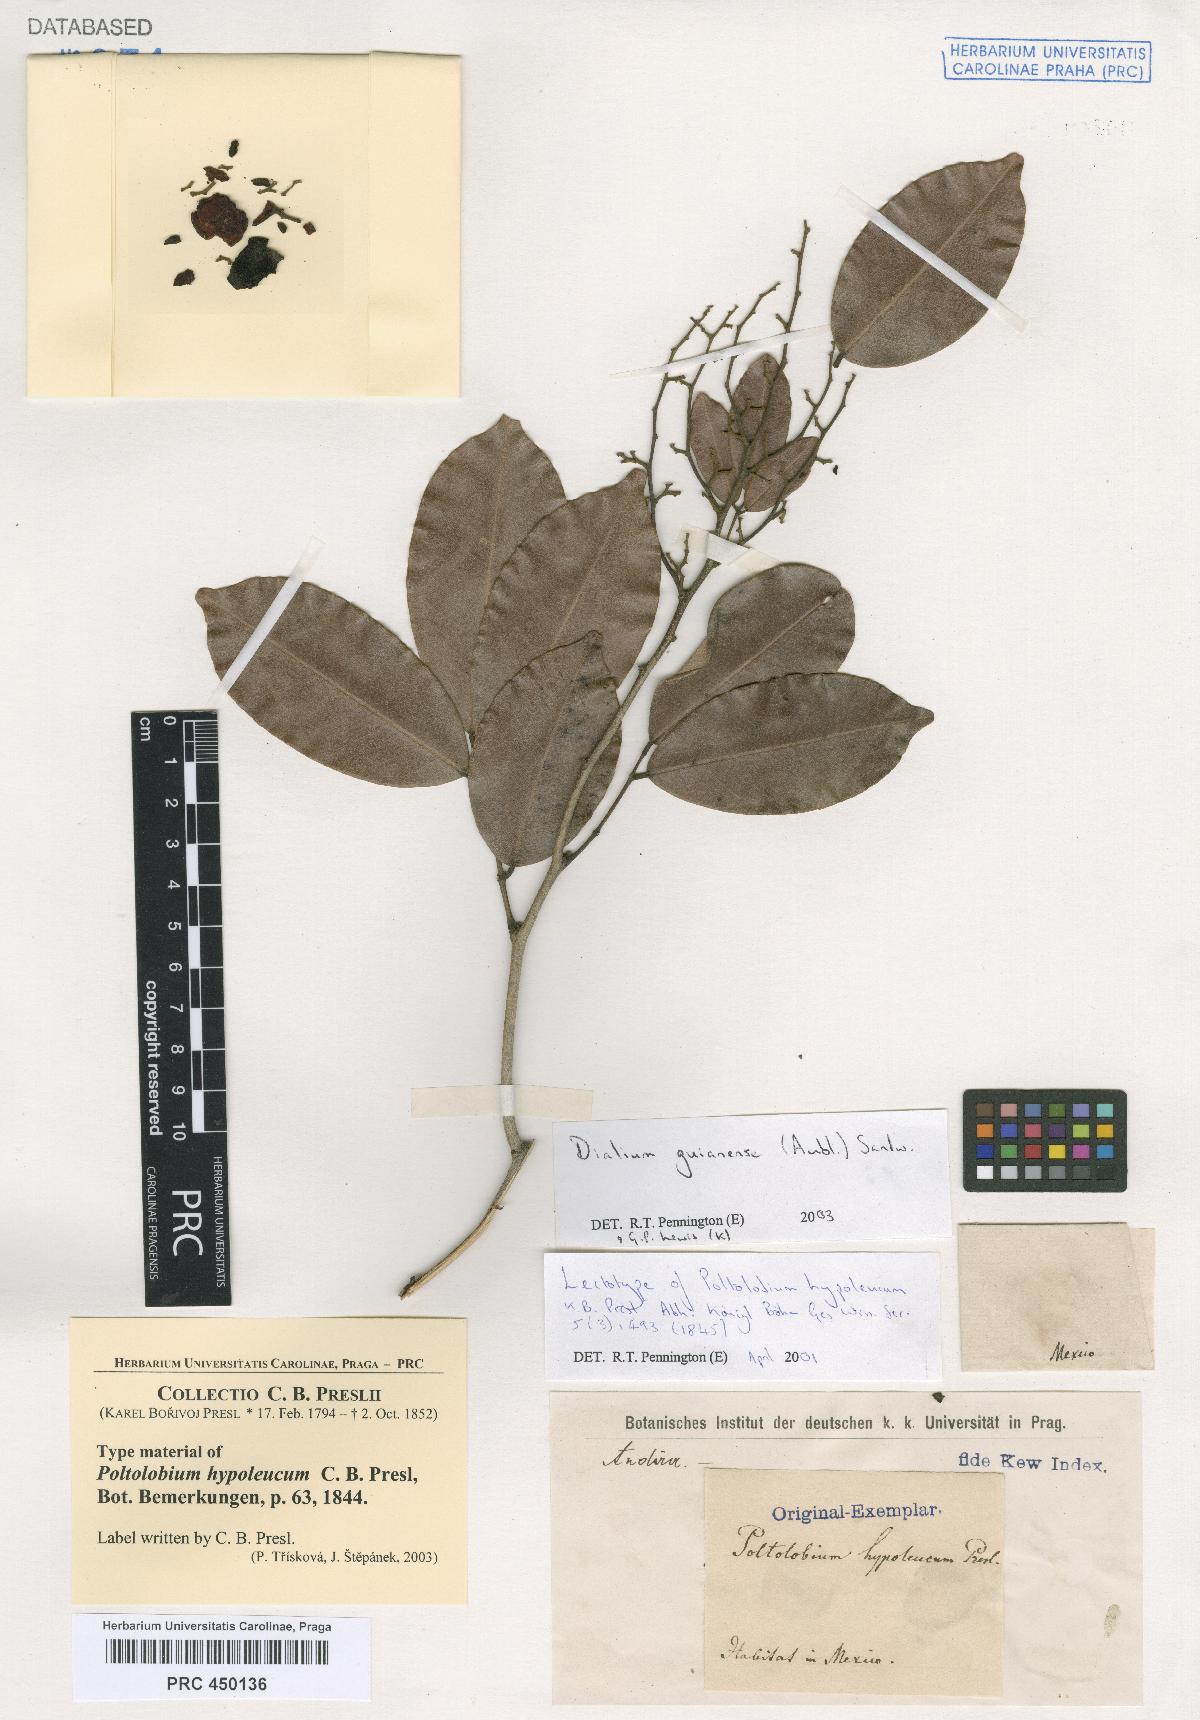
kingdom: Plantae
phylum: Tracheophyta
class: Magnoliopsida
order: Fabales
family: Fabaceae
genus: Dialium
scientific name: Dialium guianense
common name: Ironwood
